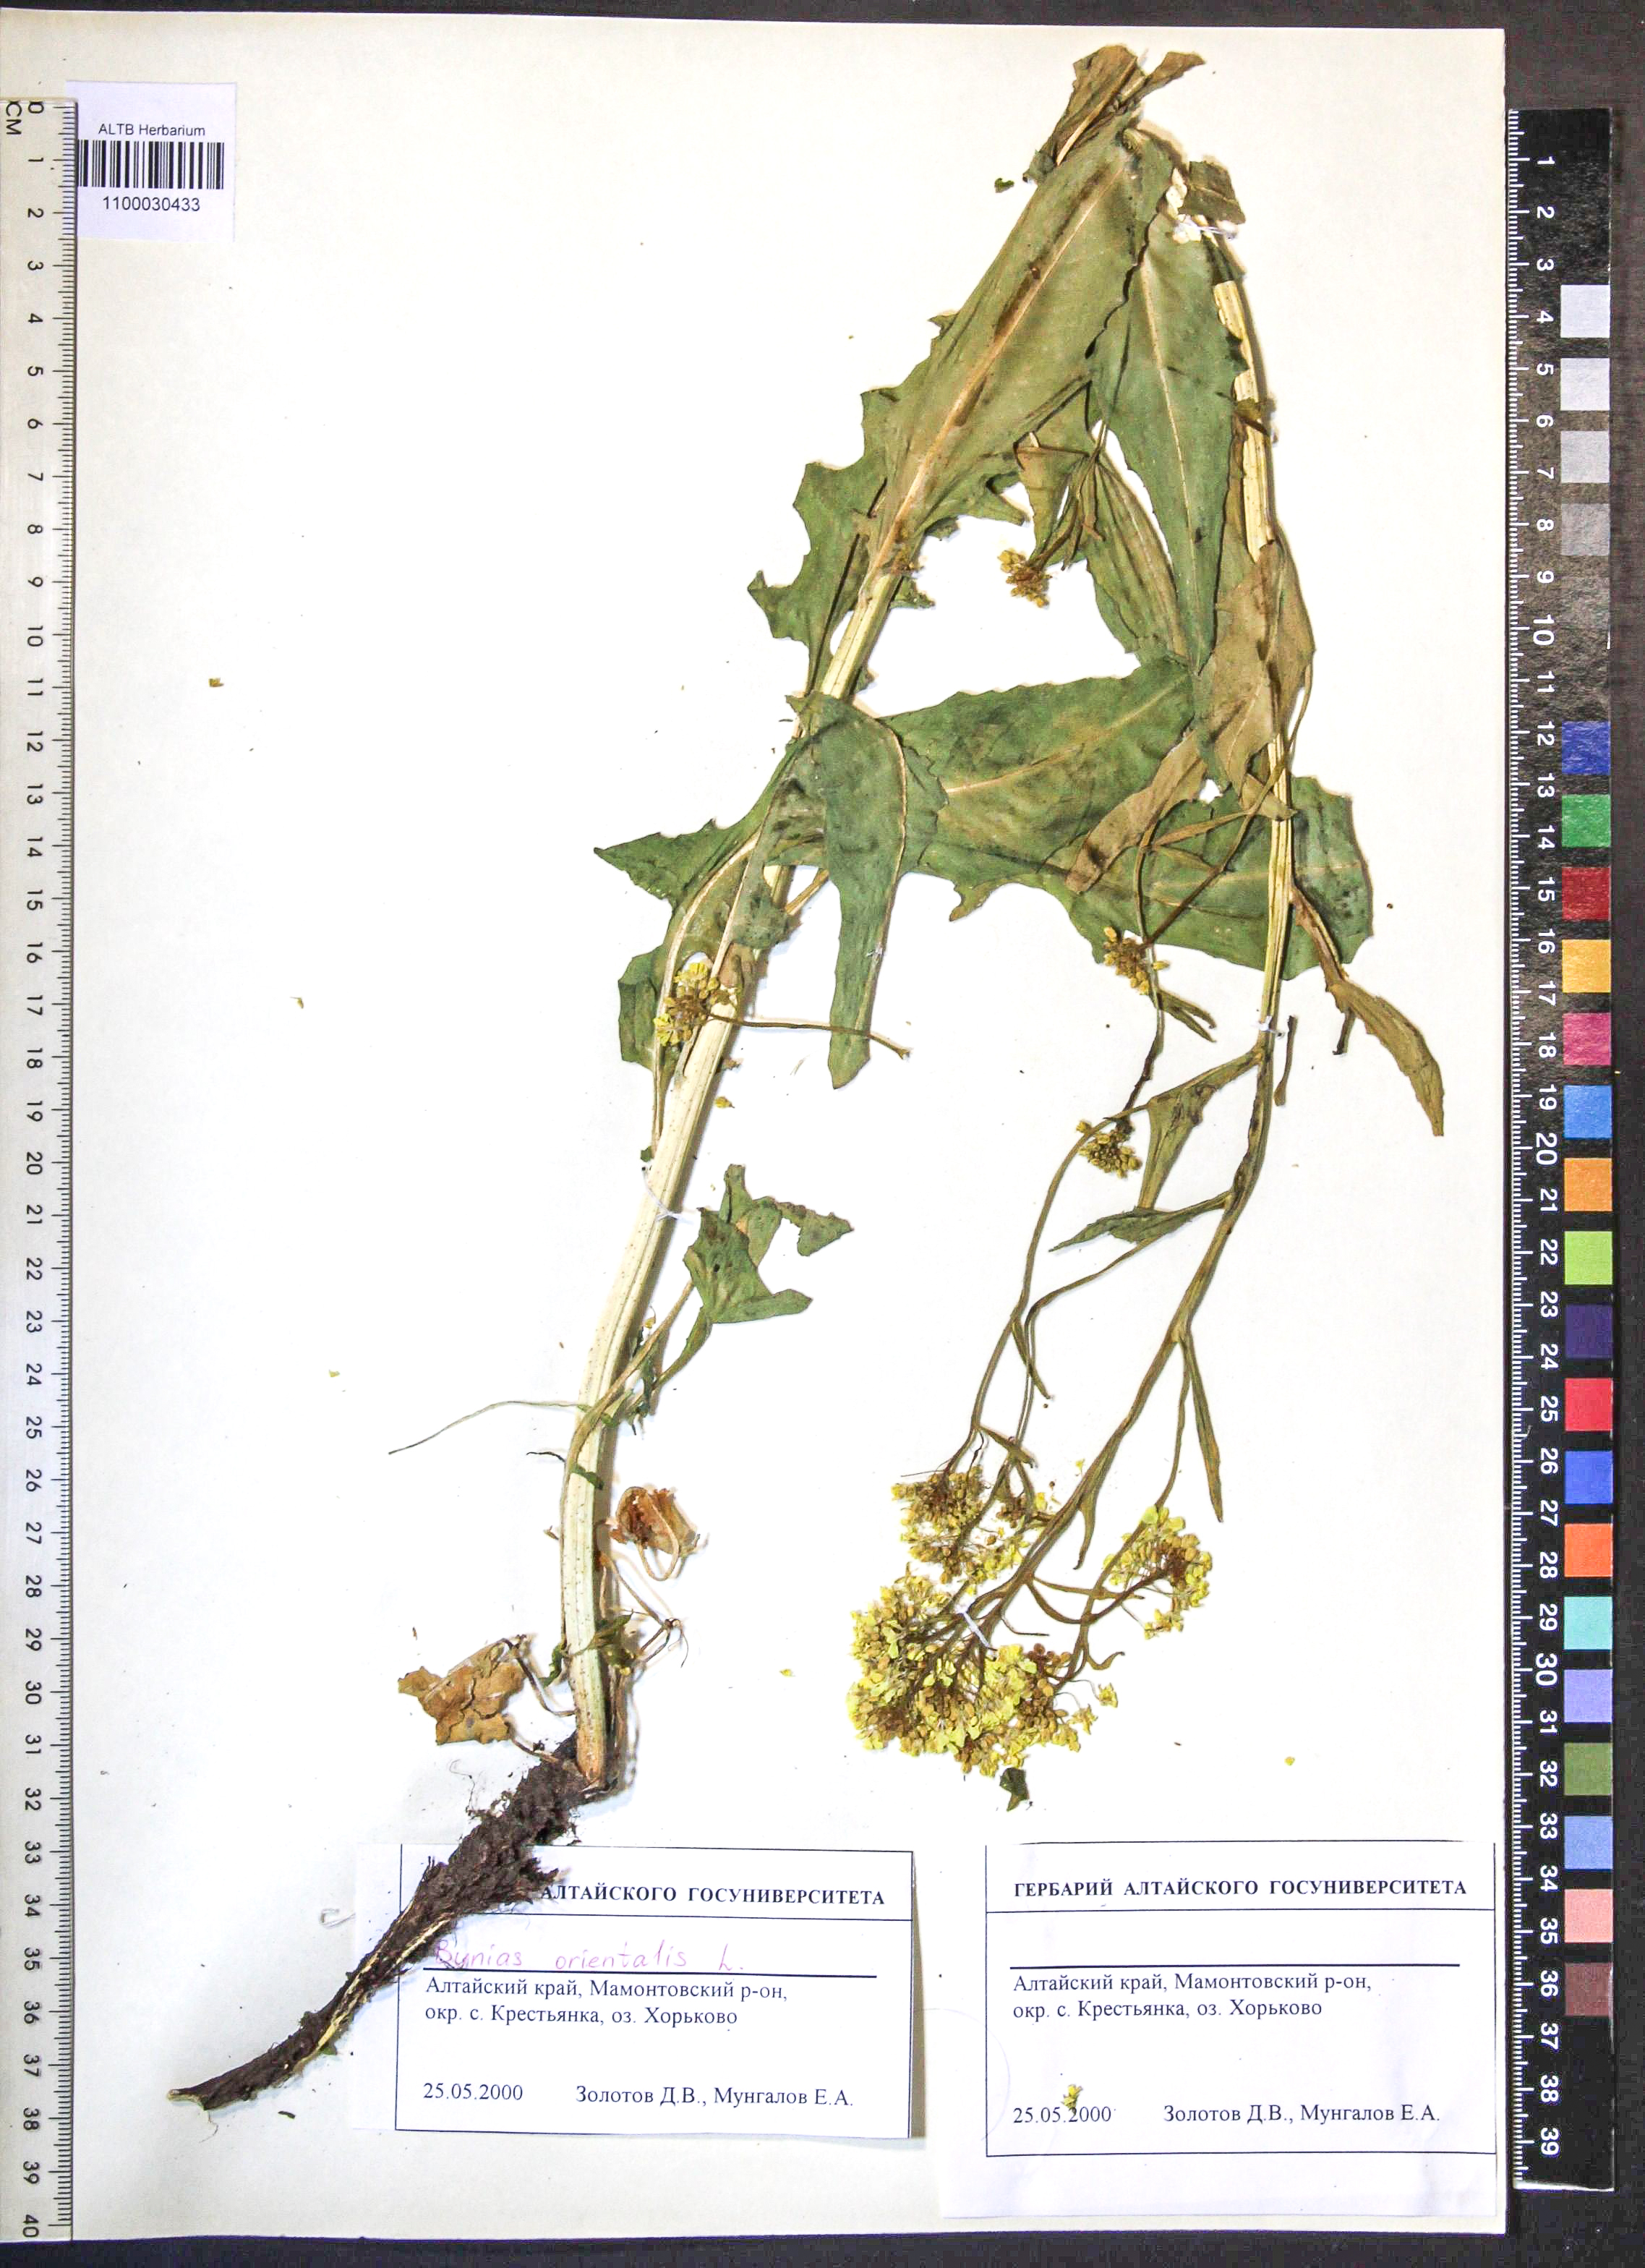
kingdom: Plantae
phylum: Tracheophyta
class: Magnoliopsida
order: Brassicales
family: Brassicaceae
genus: Bunias
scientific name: Bunias orientalis
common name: Warty-cabbage
